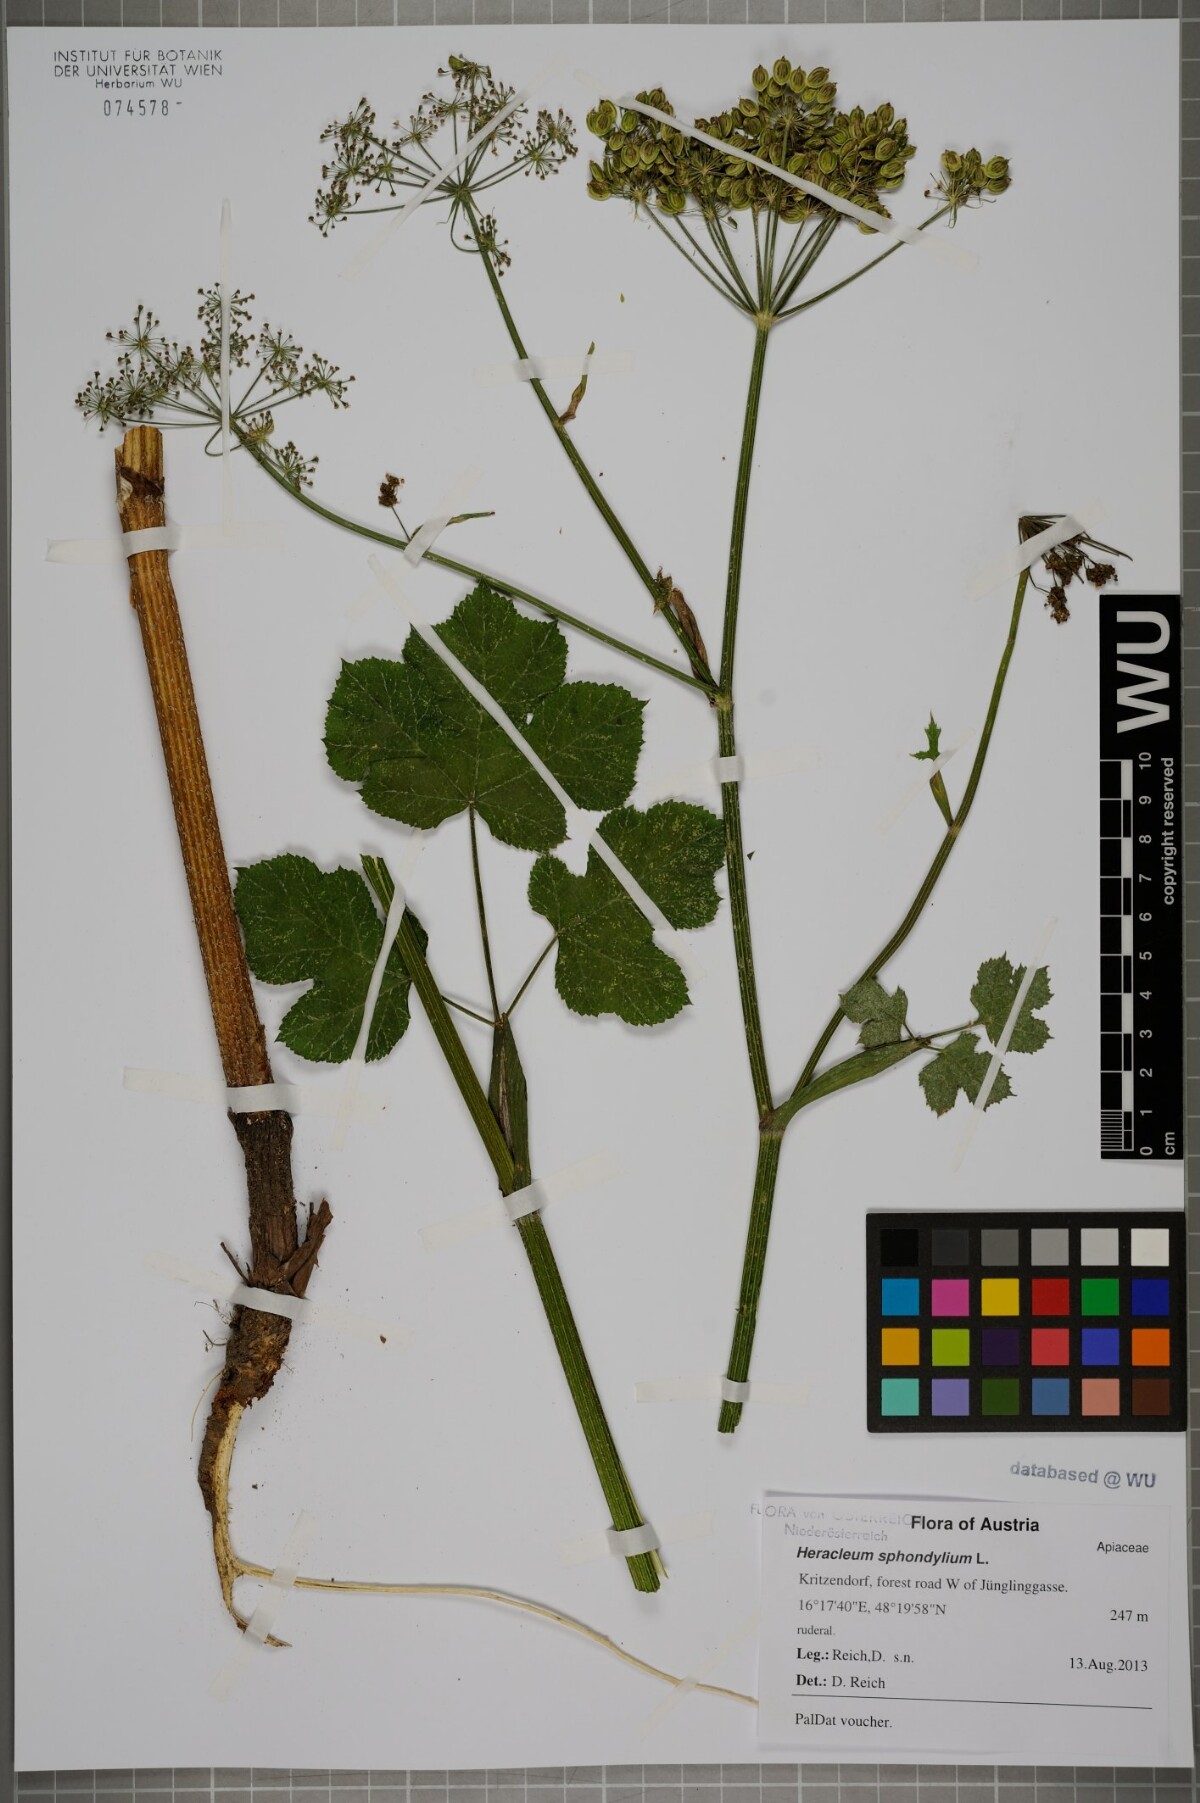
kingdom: Plantae
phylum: Tracheophyta
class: Magnoliopsida
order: Apiales
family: Apiaceae
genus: Heracleum
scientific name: Heracleum sphondylium
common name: Hogweed
